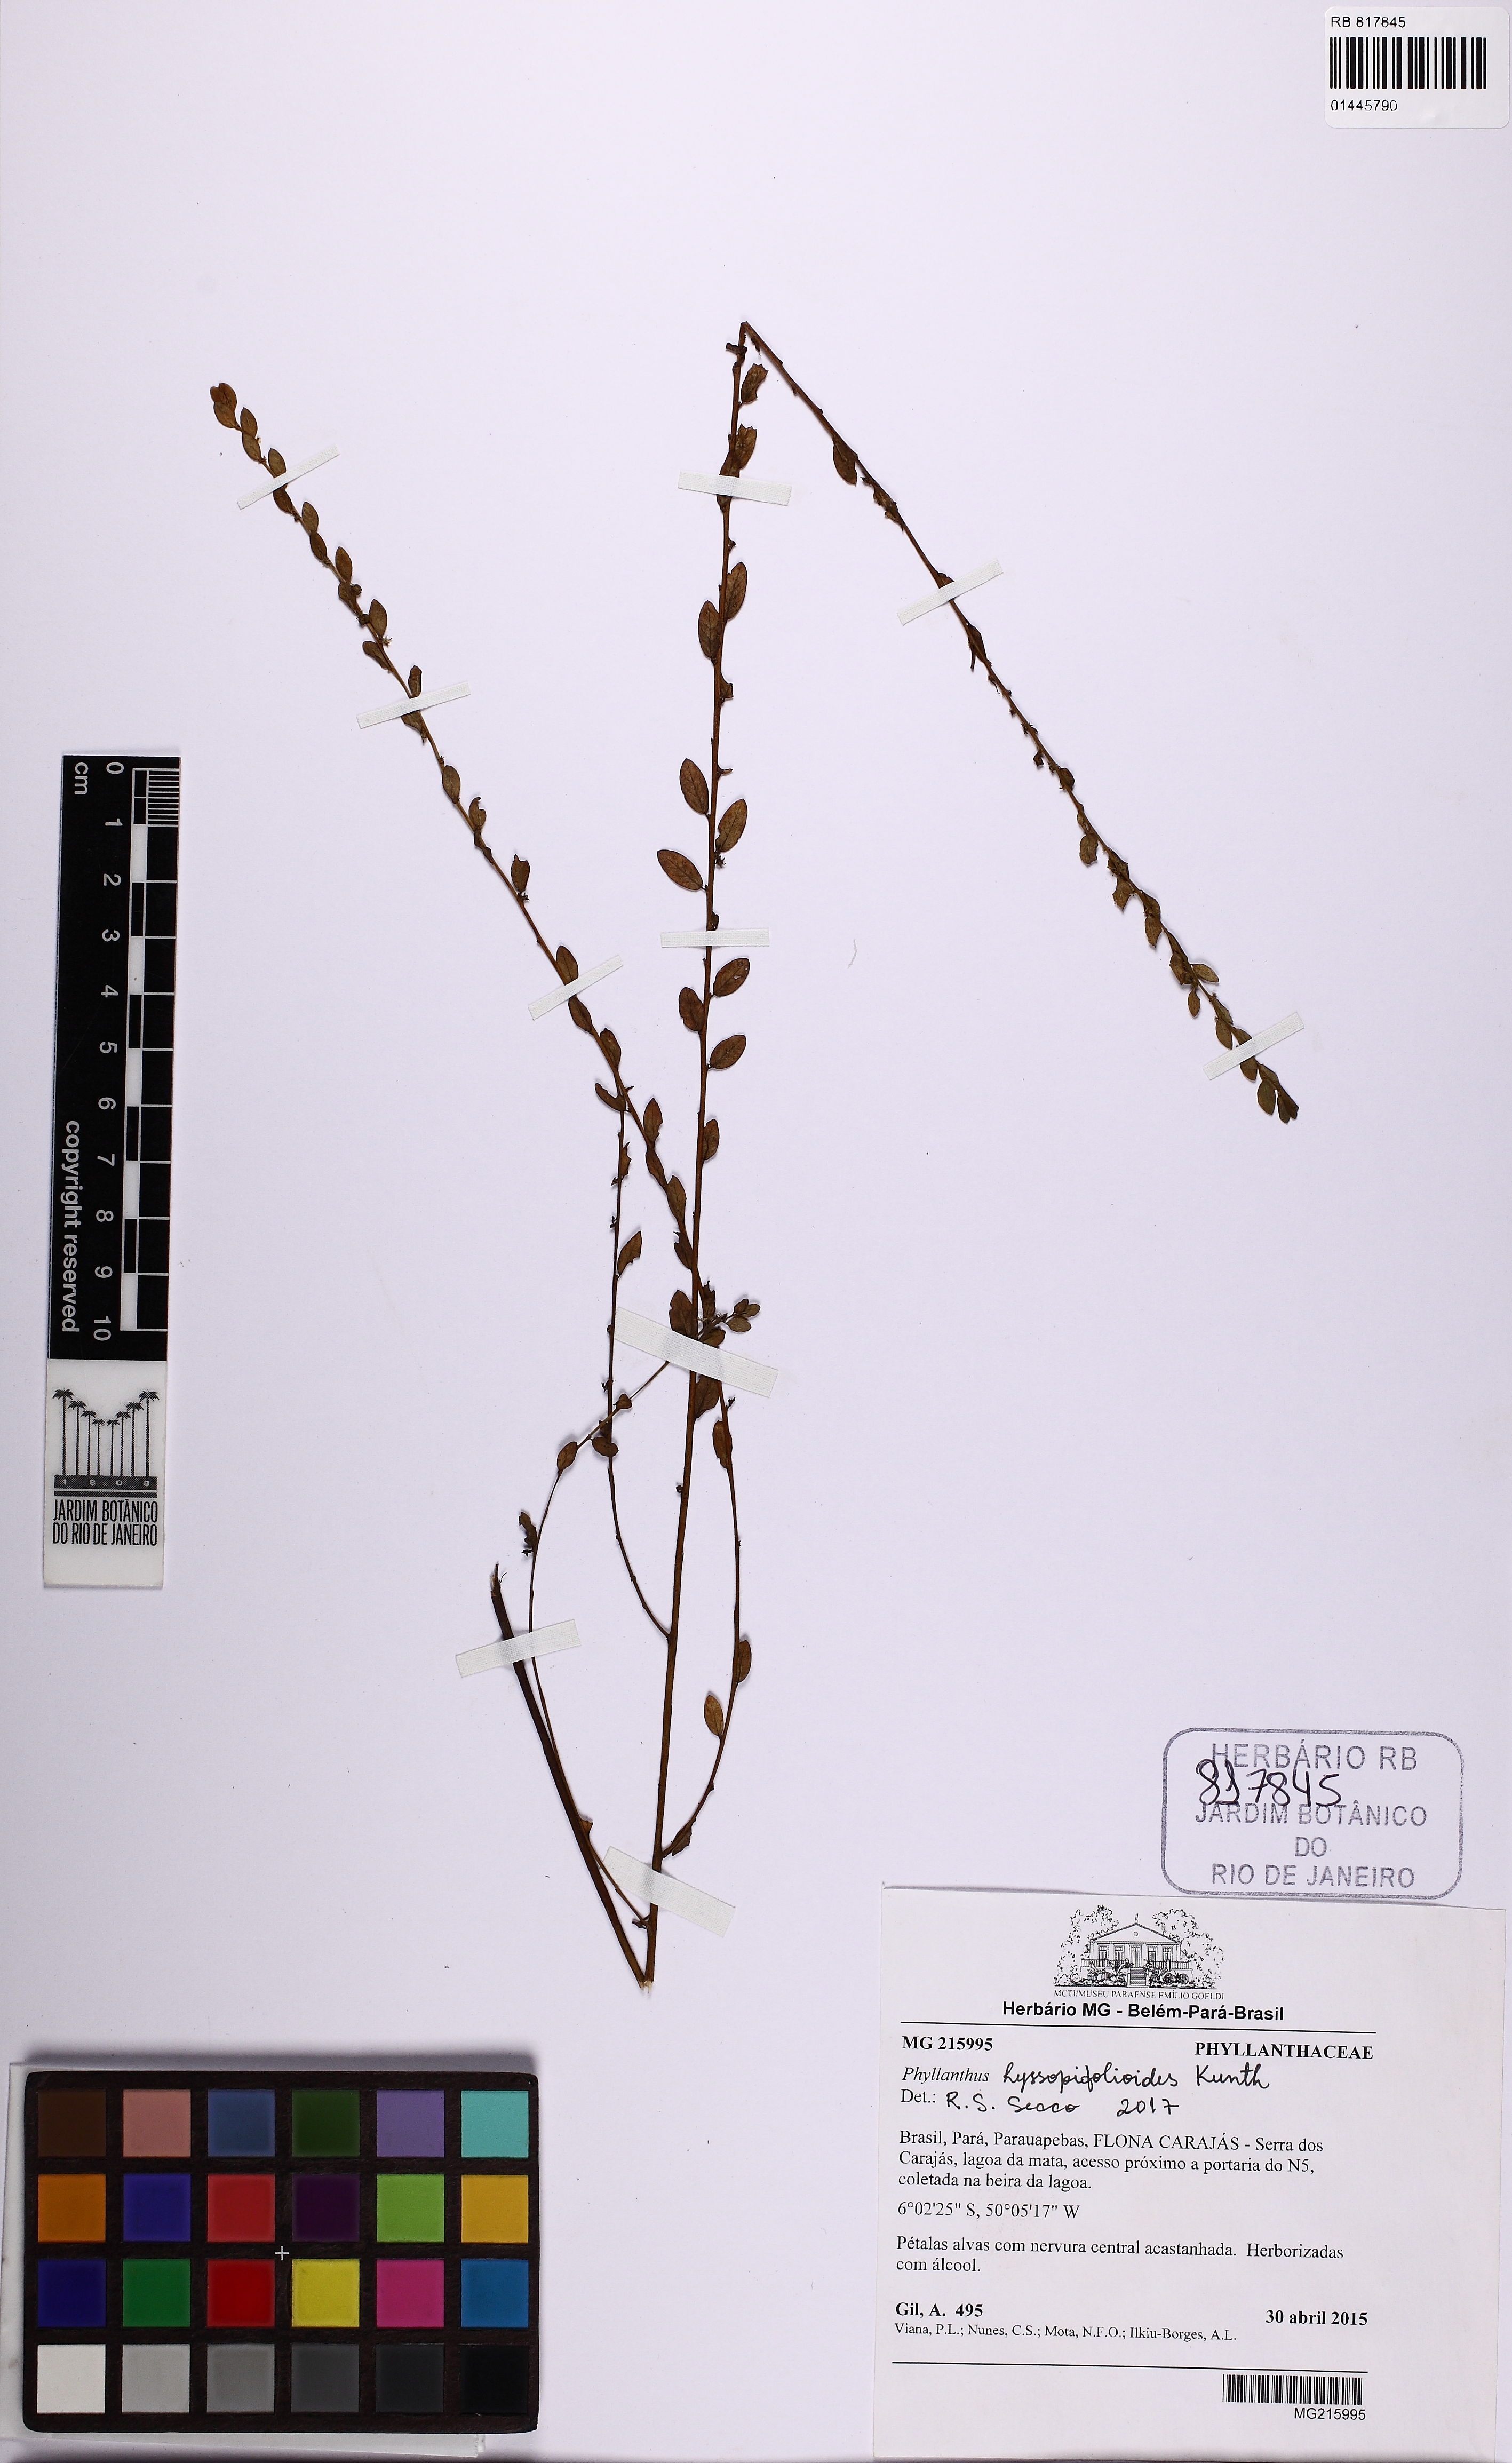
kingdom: Plantae
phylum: Tracheophyta
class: Magnoliopsida
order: Malpighiales
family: Phyllanthaceae
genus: Phyllanthus
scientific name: Phyllanthus hyssopifolioides
